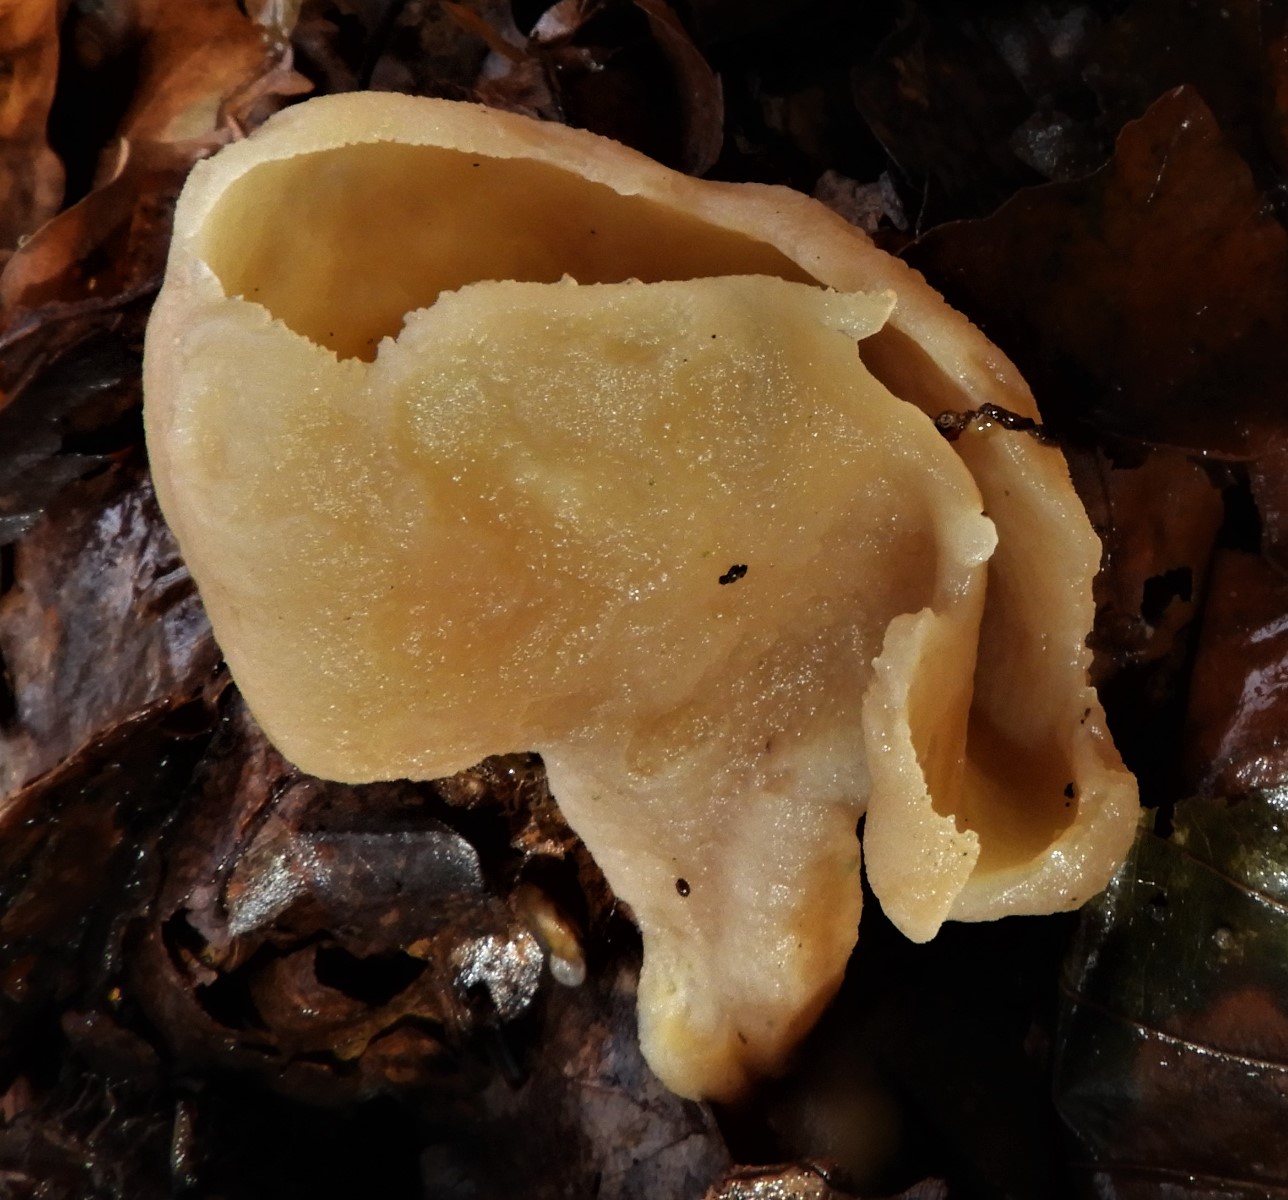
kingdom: Fungi
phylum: Ascomycota
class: Pezizomycetes
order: Pezizales
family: Pezizaceae
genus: Peziza
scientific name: Peziza
